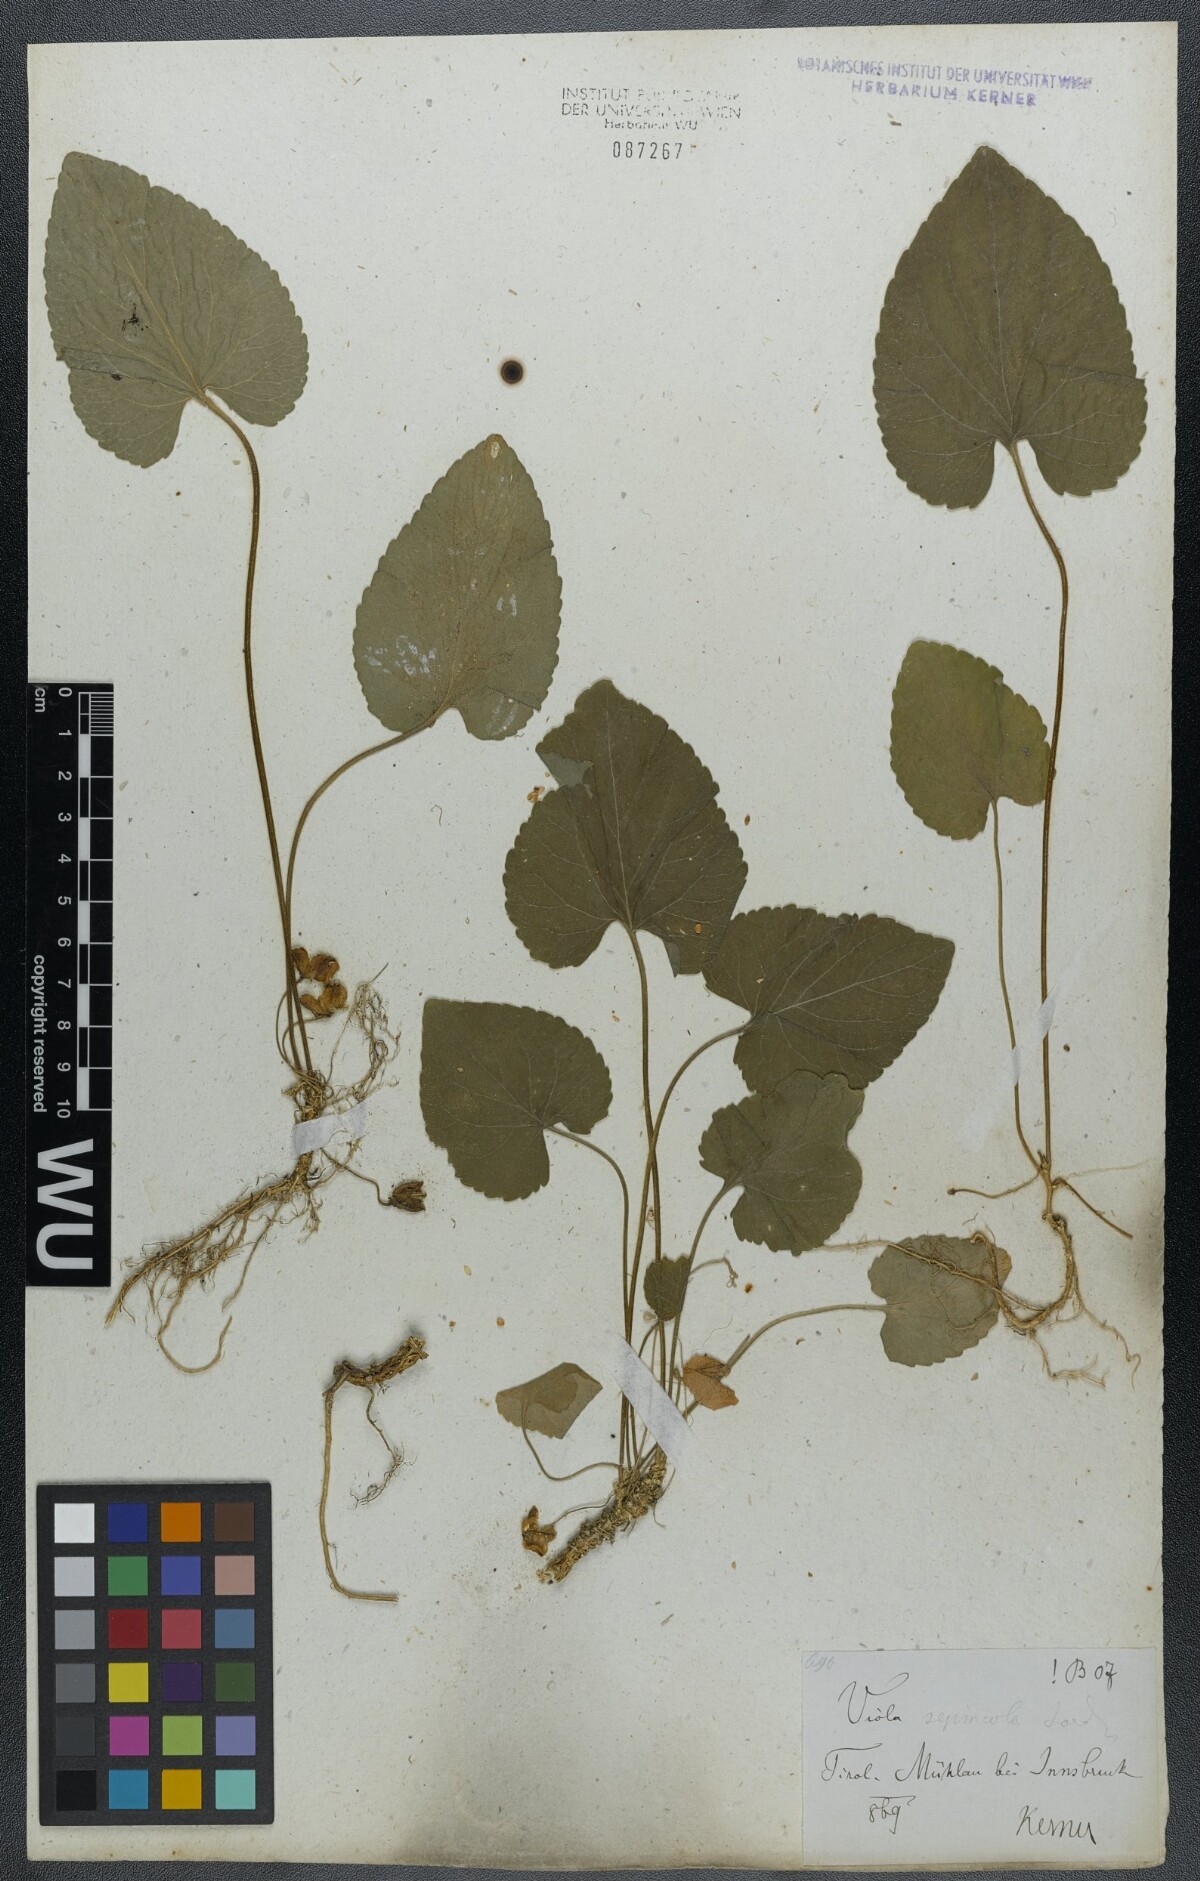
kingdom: Plantae
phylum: Tracheophyta
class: Magnoliopsida
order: Malpighiales
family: Violaceae
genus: Viola
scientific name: Viola suavis
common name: Russian violet
